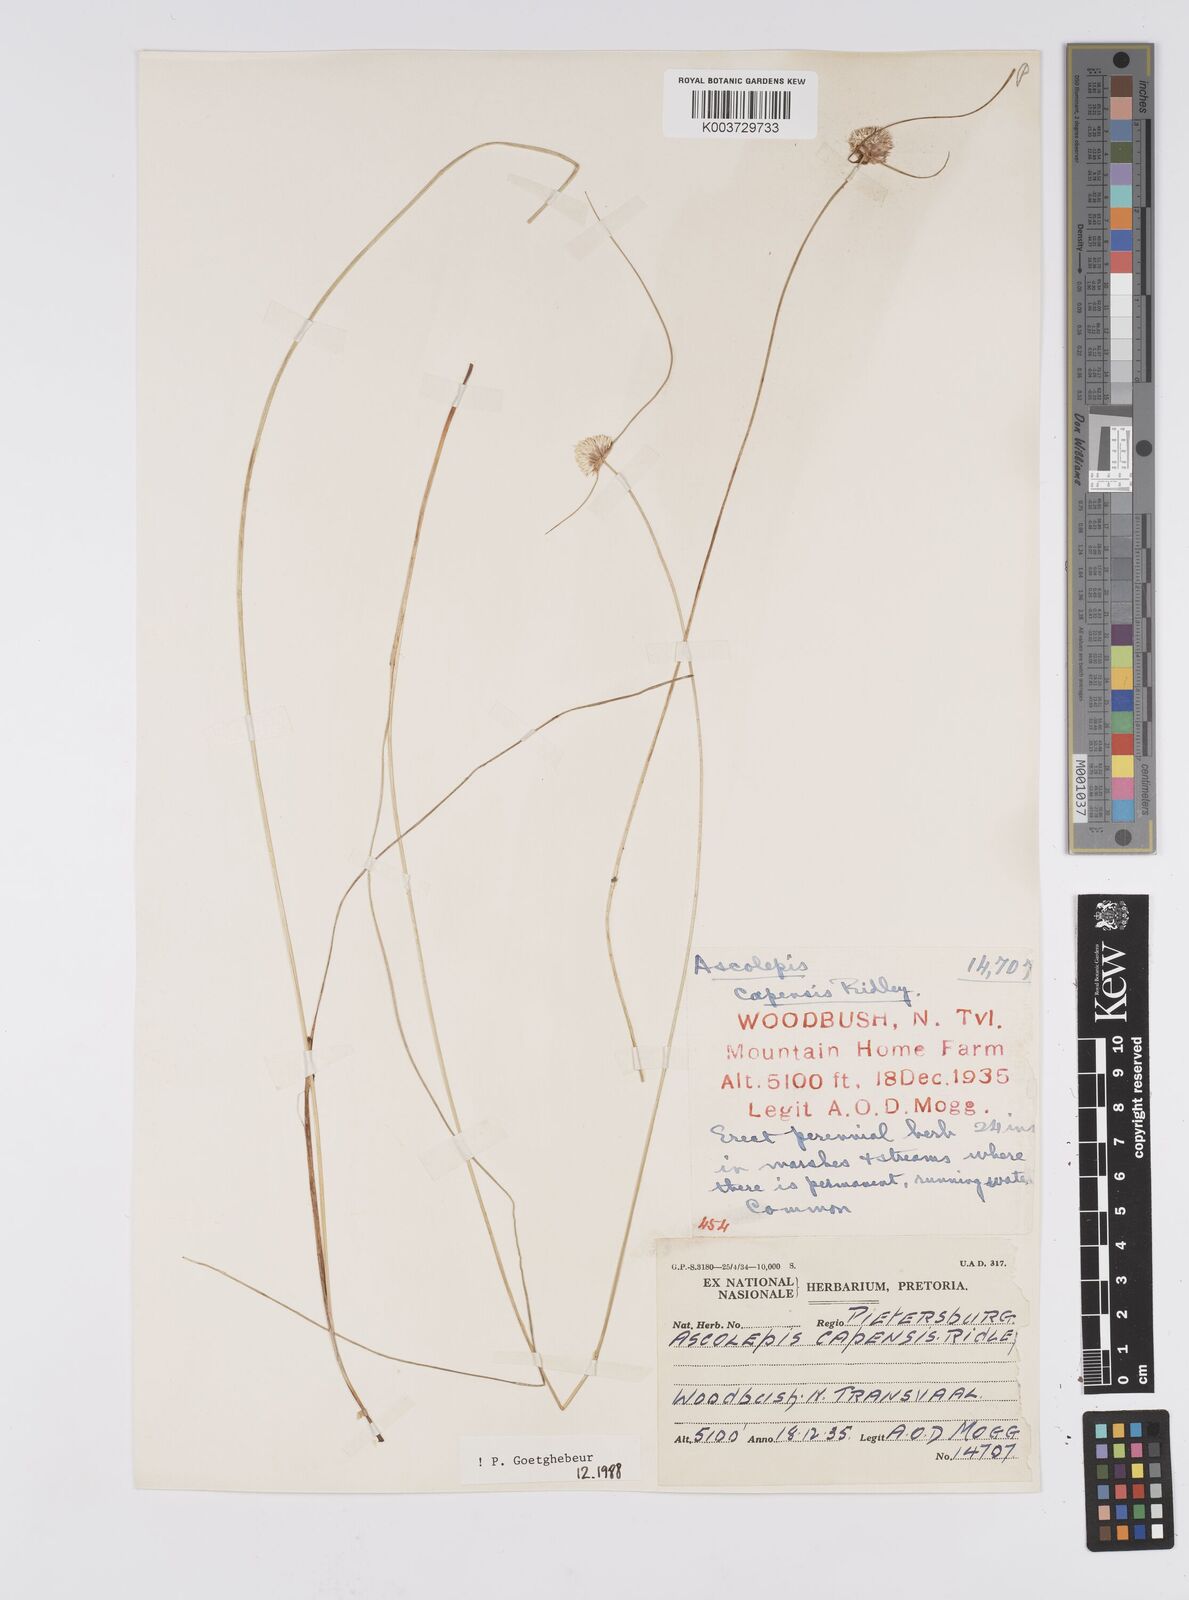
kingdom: Plantae
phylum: Tracheophyta
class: Liliopsida
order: Poales
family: Cyperaceae
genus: Cyperus
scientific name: Cyperus capensis
